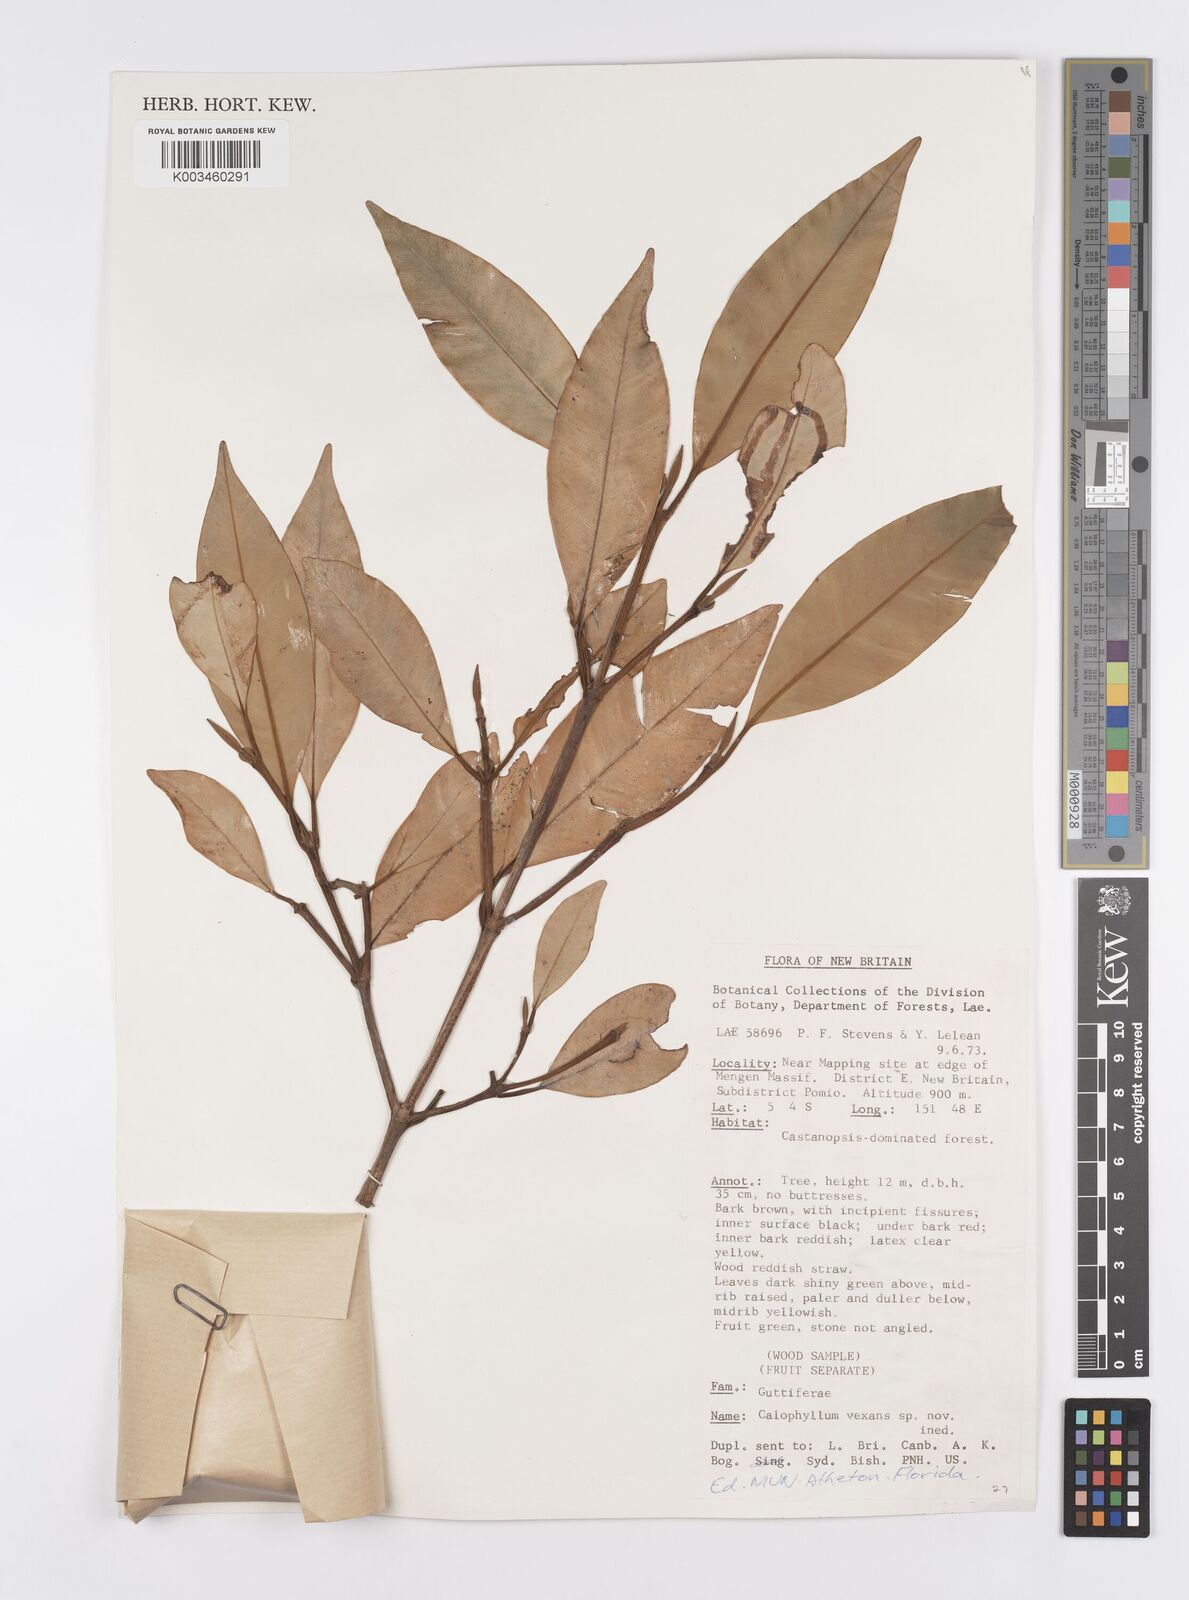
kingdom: Plantae
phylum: Tracheophyta
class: Magnoliopsida
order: Malpighiales
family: Calophyllaceae
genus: Calophyllum
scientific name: Calophyllum vexans
